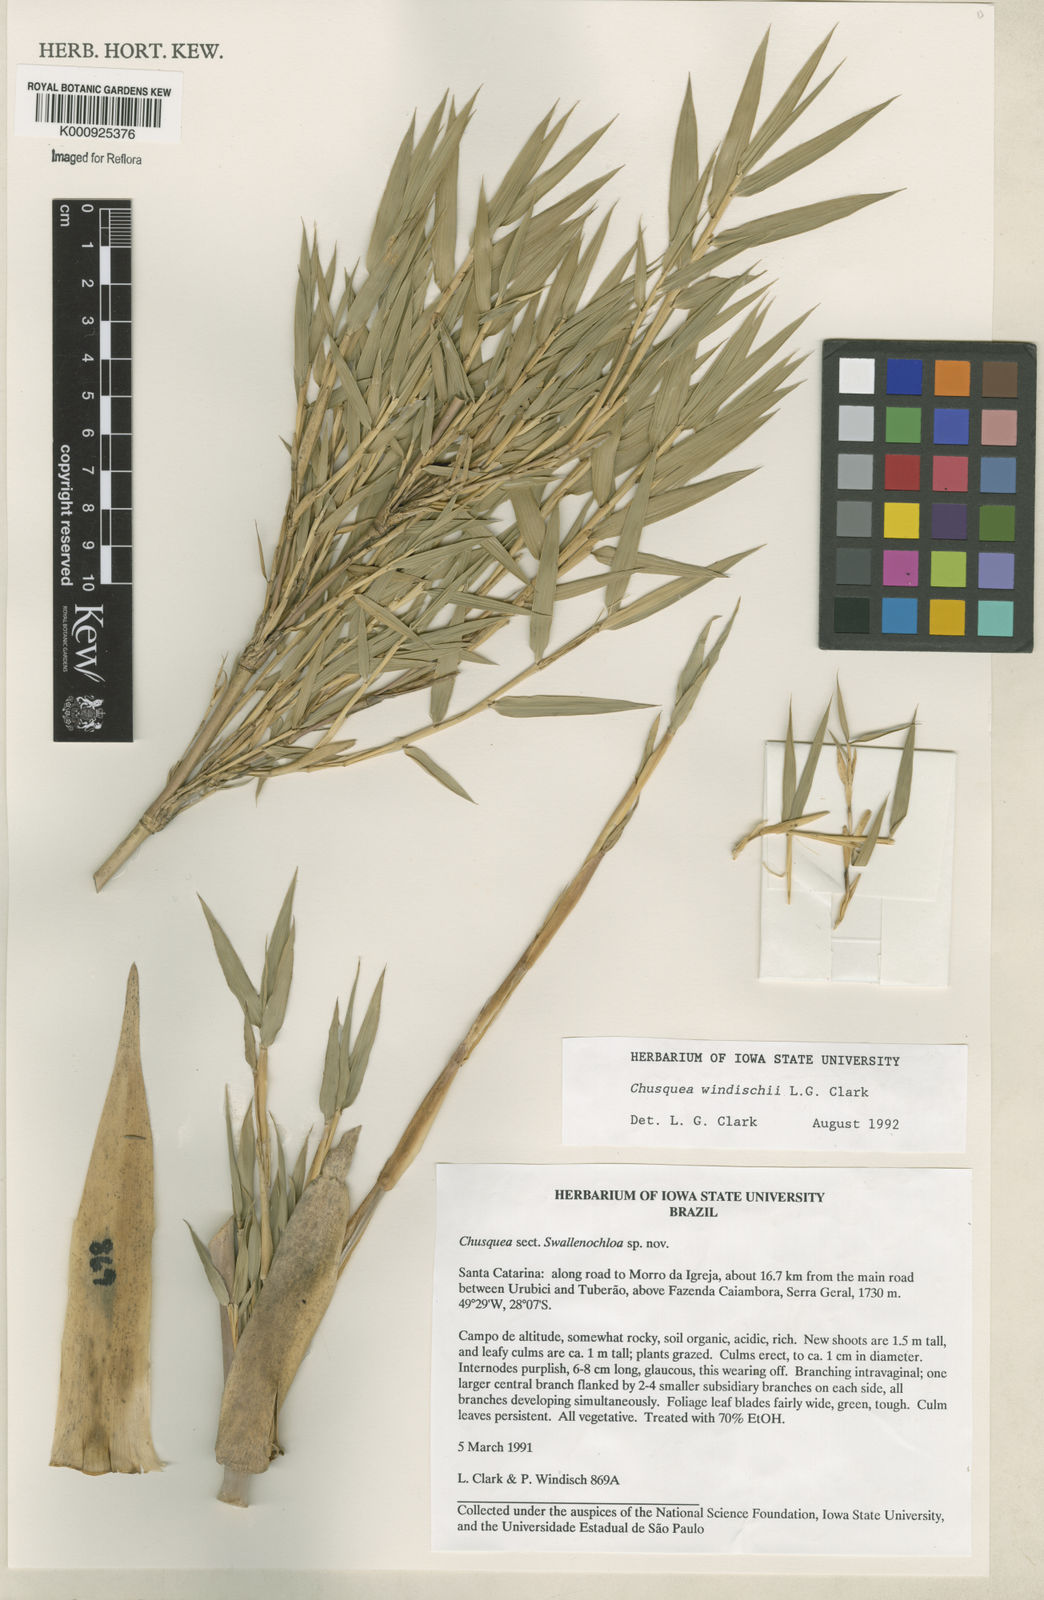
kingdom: Plantae
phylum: Tracheophyta
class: Liliopsida
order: Poales
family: Poaceae
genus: Chusquea
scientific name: Chusquea windischii
